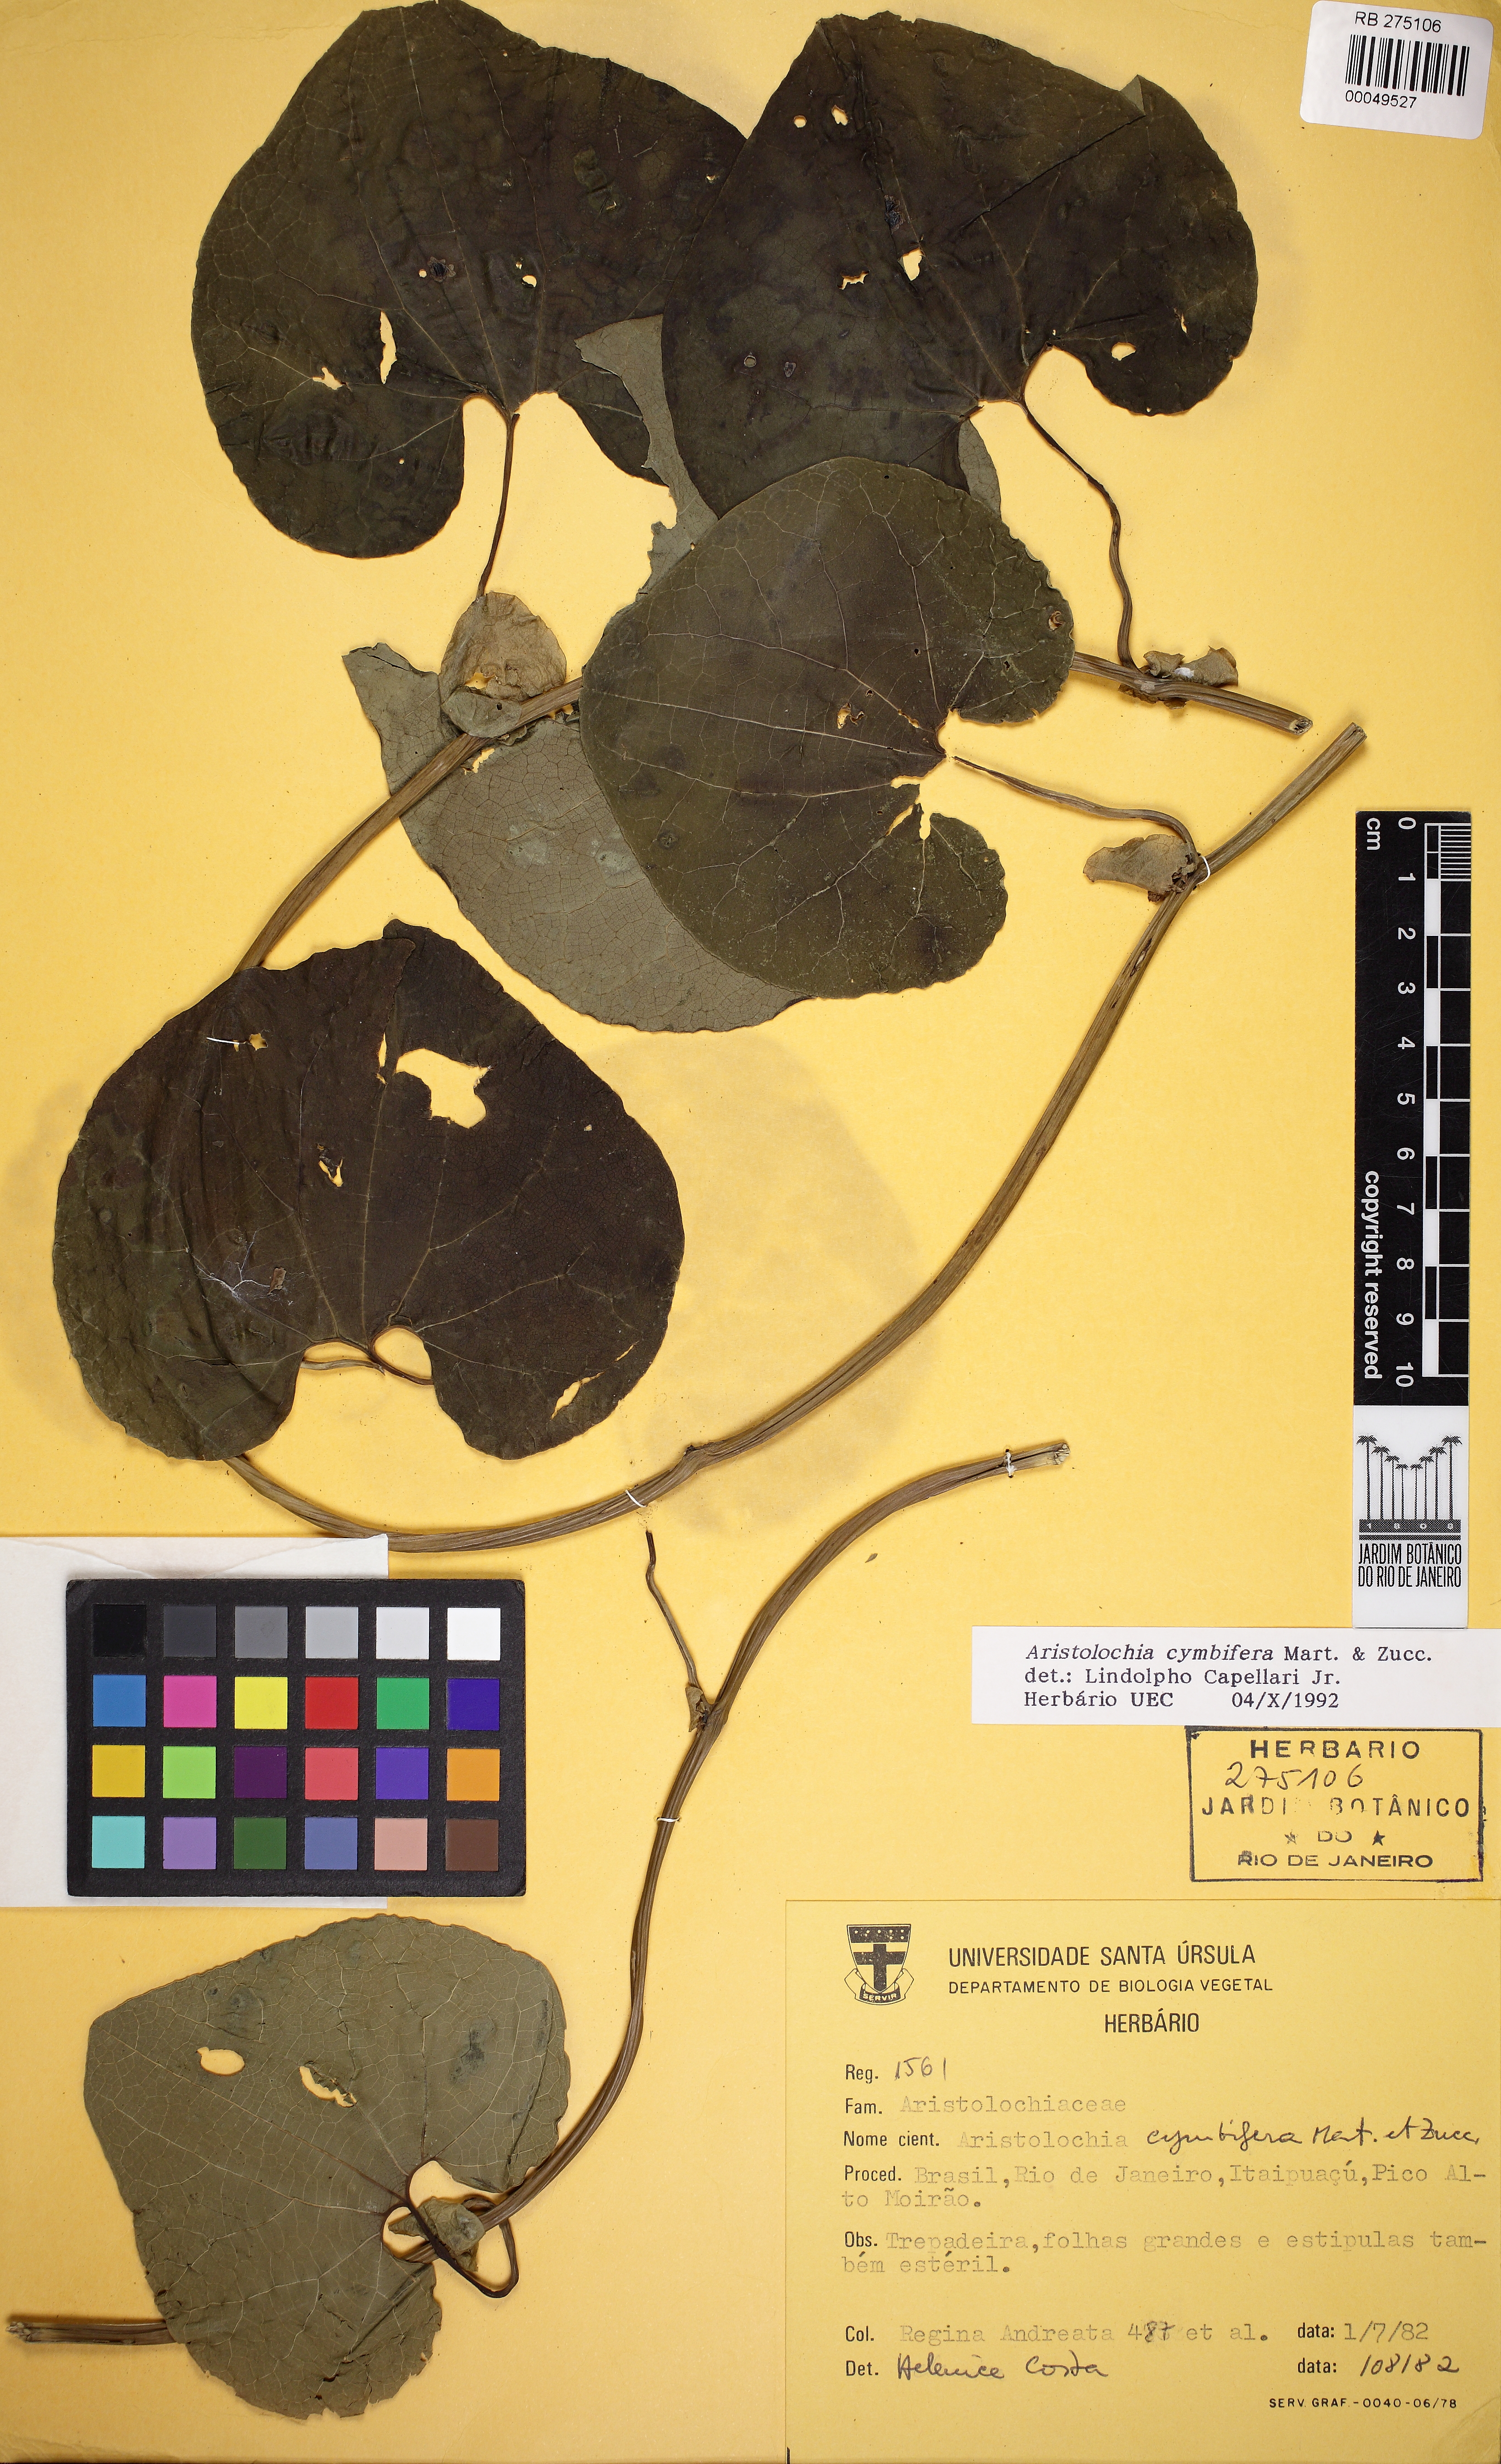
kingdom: Plantae
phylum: Tracheophyta
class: Magnoliopsida
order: Piperales
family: Aristolochiaceae
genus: Aristolochia
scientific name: Aristolochia cymbifera
